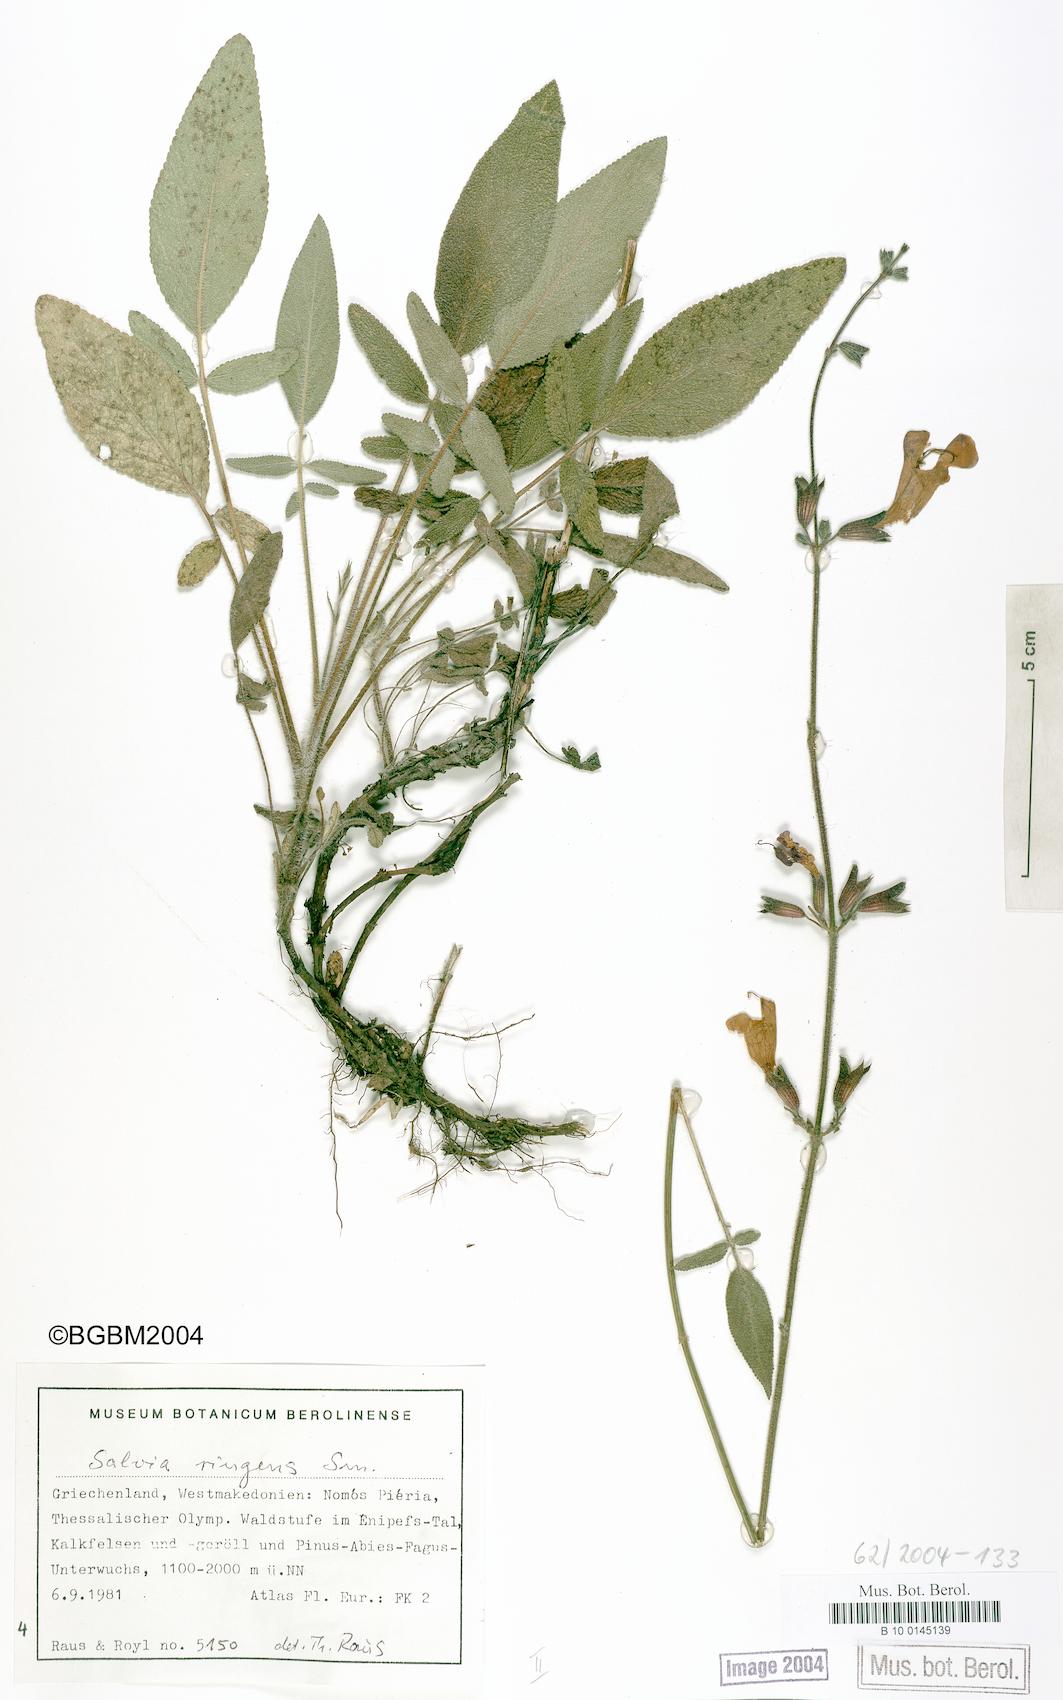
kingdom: Plantae
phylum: Tracheophyta
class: Magnoliopsida
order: Lamiales
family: Lamiaceae
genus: Salvia
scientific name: Salvia ringens
